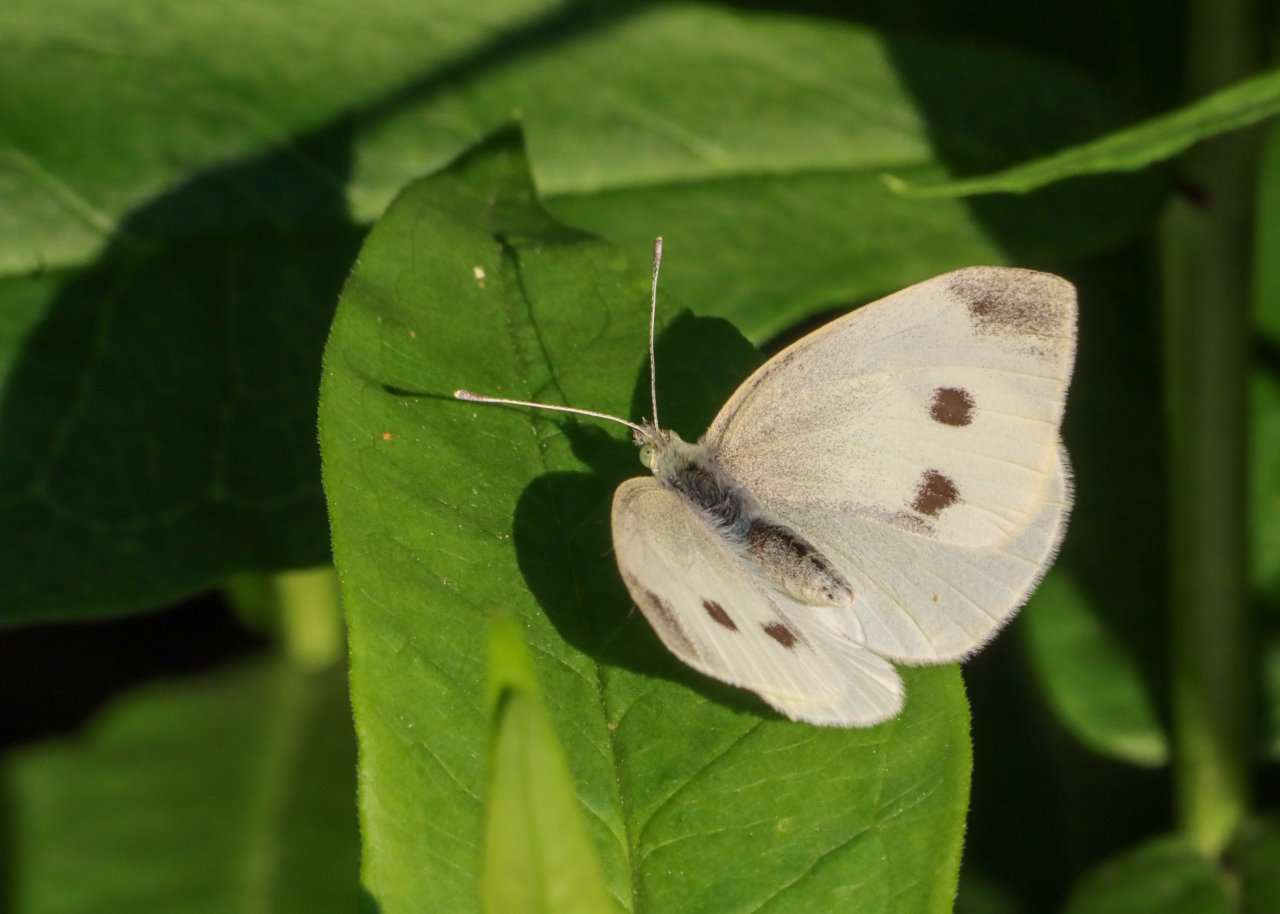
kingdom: Animalia
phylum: Arthropoda
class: Insecta
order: Lepidoptera
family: Pieridae
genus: Pieris
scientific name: Pieris rapae
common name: Cabbage White
